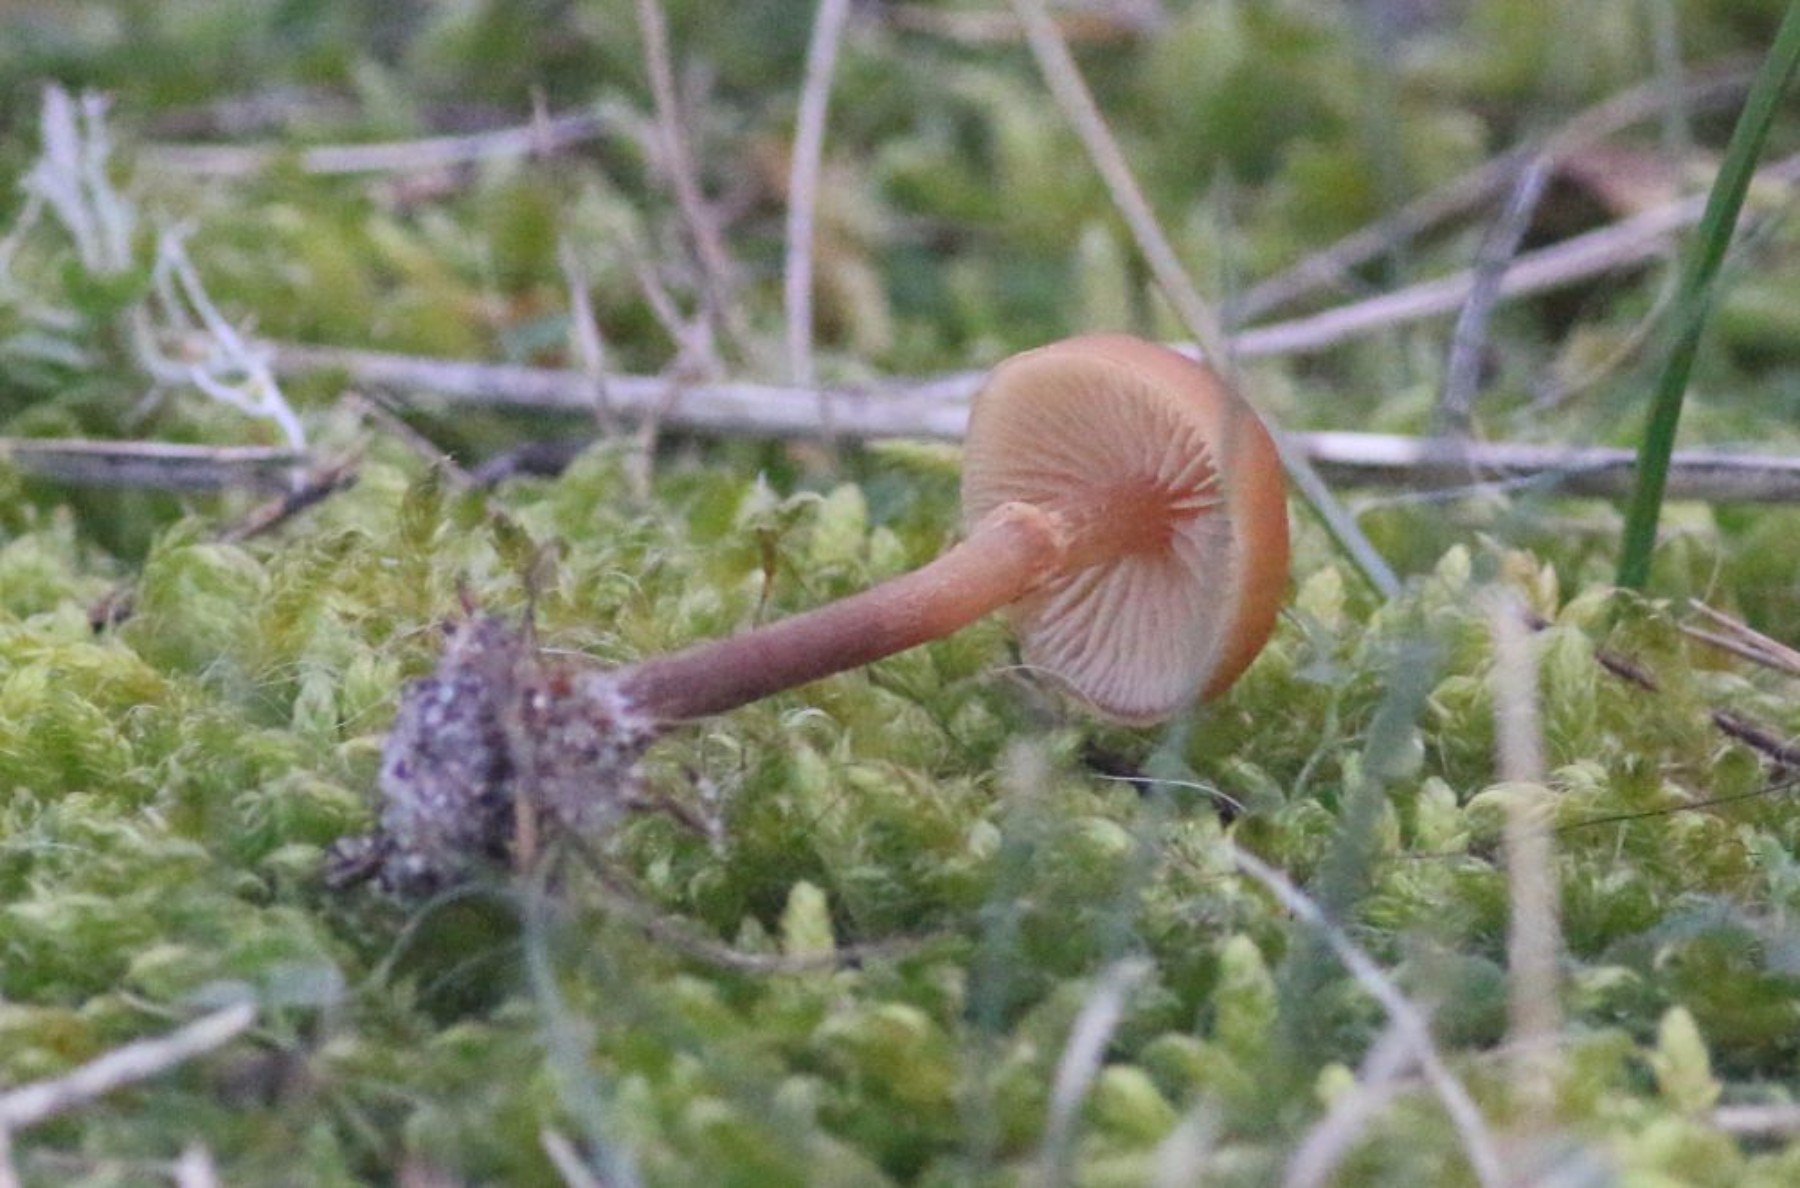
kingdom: Fungi
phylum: Basidiomycota
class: Agaricomycetes
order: Agaricales
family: Hymenogastraceae
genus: Galerina
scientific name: Galerina
